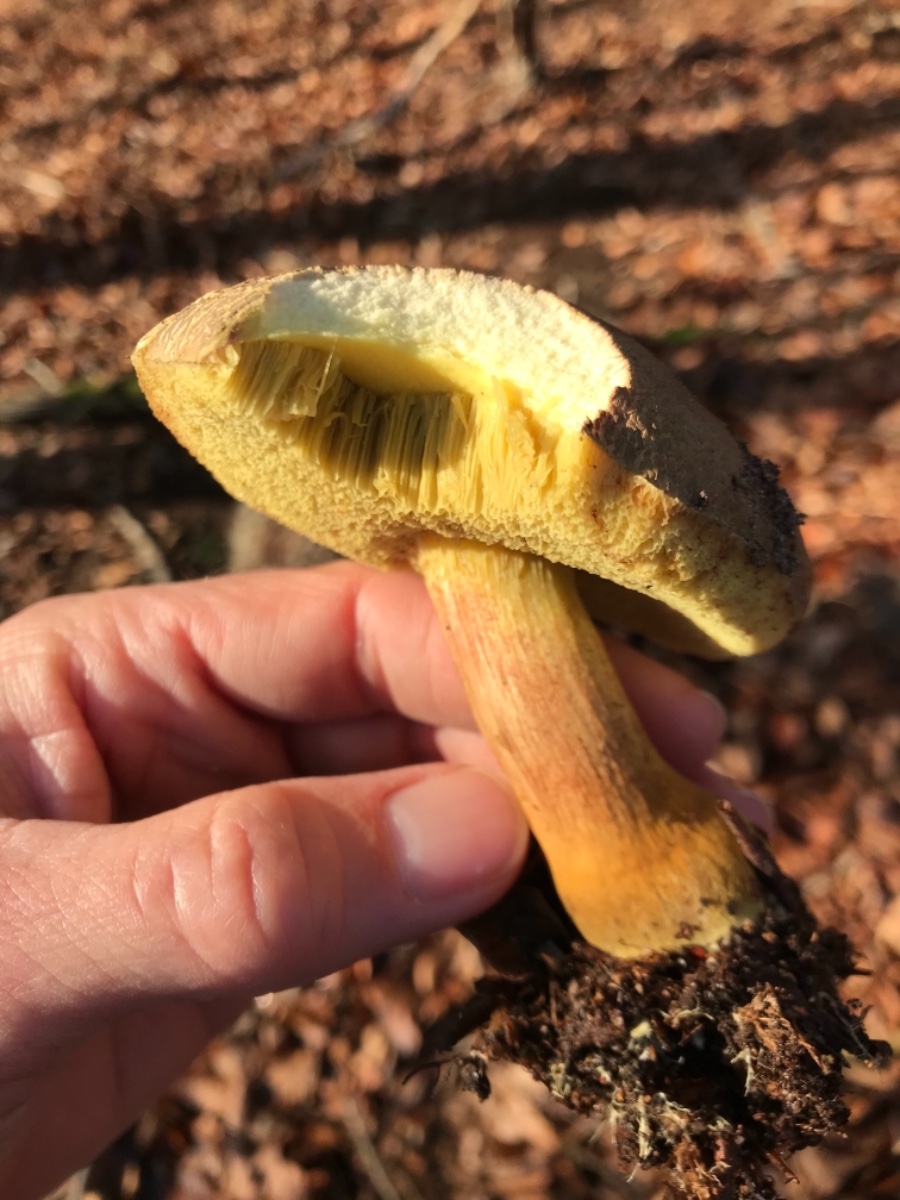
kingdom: Fungi
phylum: Basidiomycota
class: Agaricomycetes
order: Boletales
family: Boletaceae
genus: Xerocomellus
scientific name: Xerocomellus pruinatus
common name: dugget rørhat
